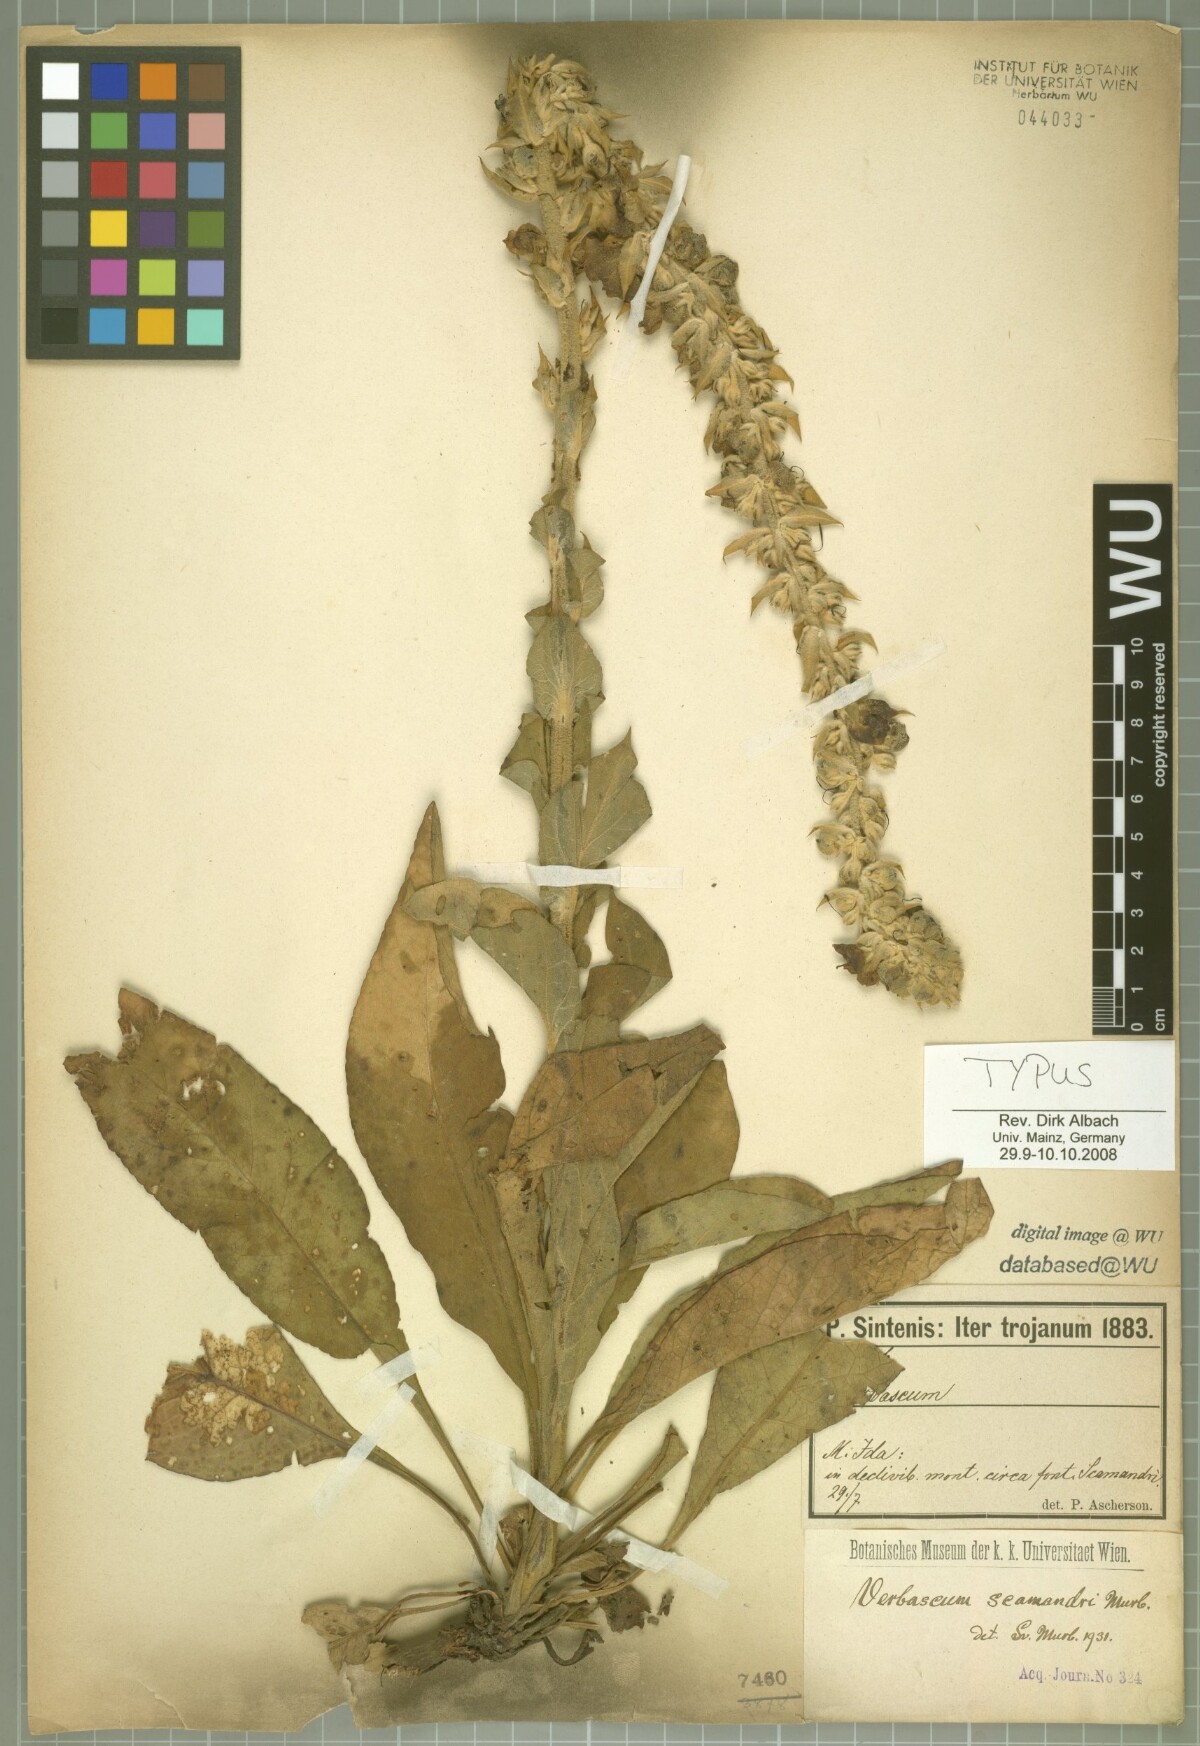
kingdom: Plantae
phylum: Tracheophyta
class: Magnoliopsida
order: Lamiales
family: Scrophulariaceae
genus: Verbascum
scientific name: Verbascum scamandri
